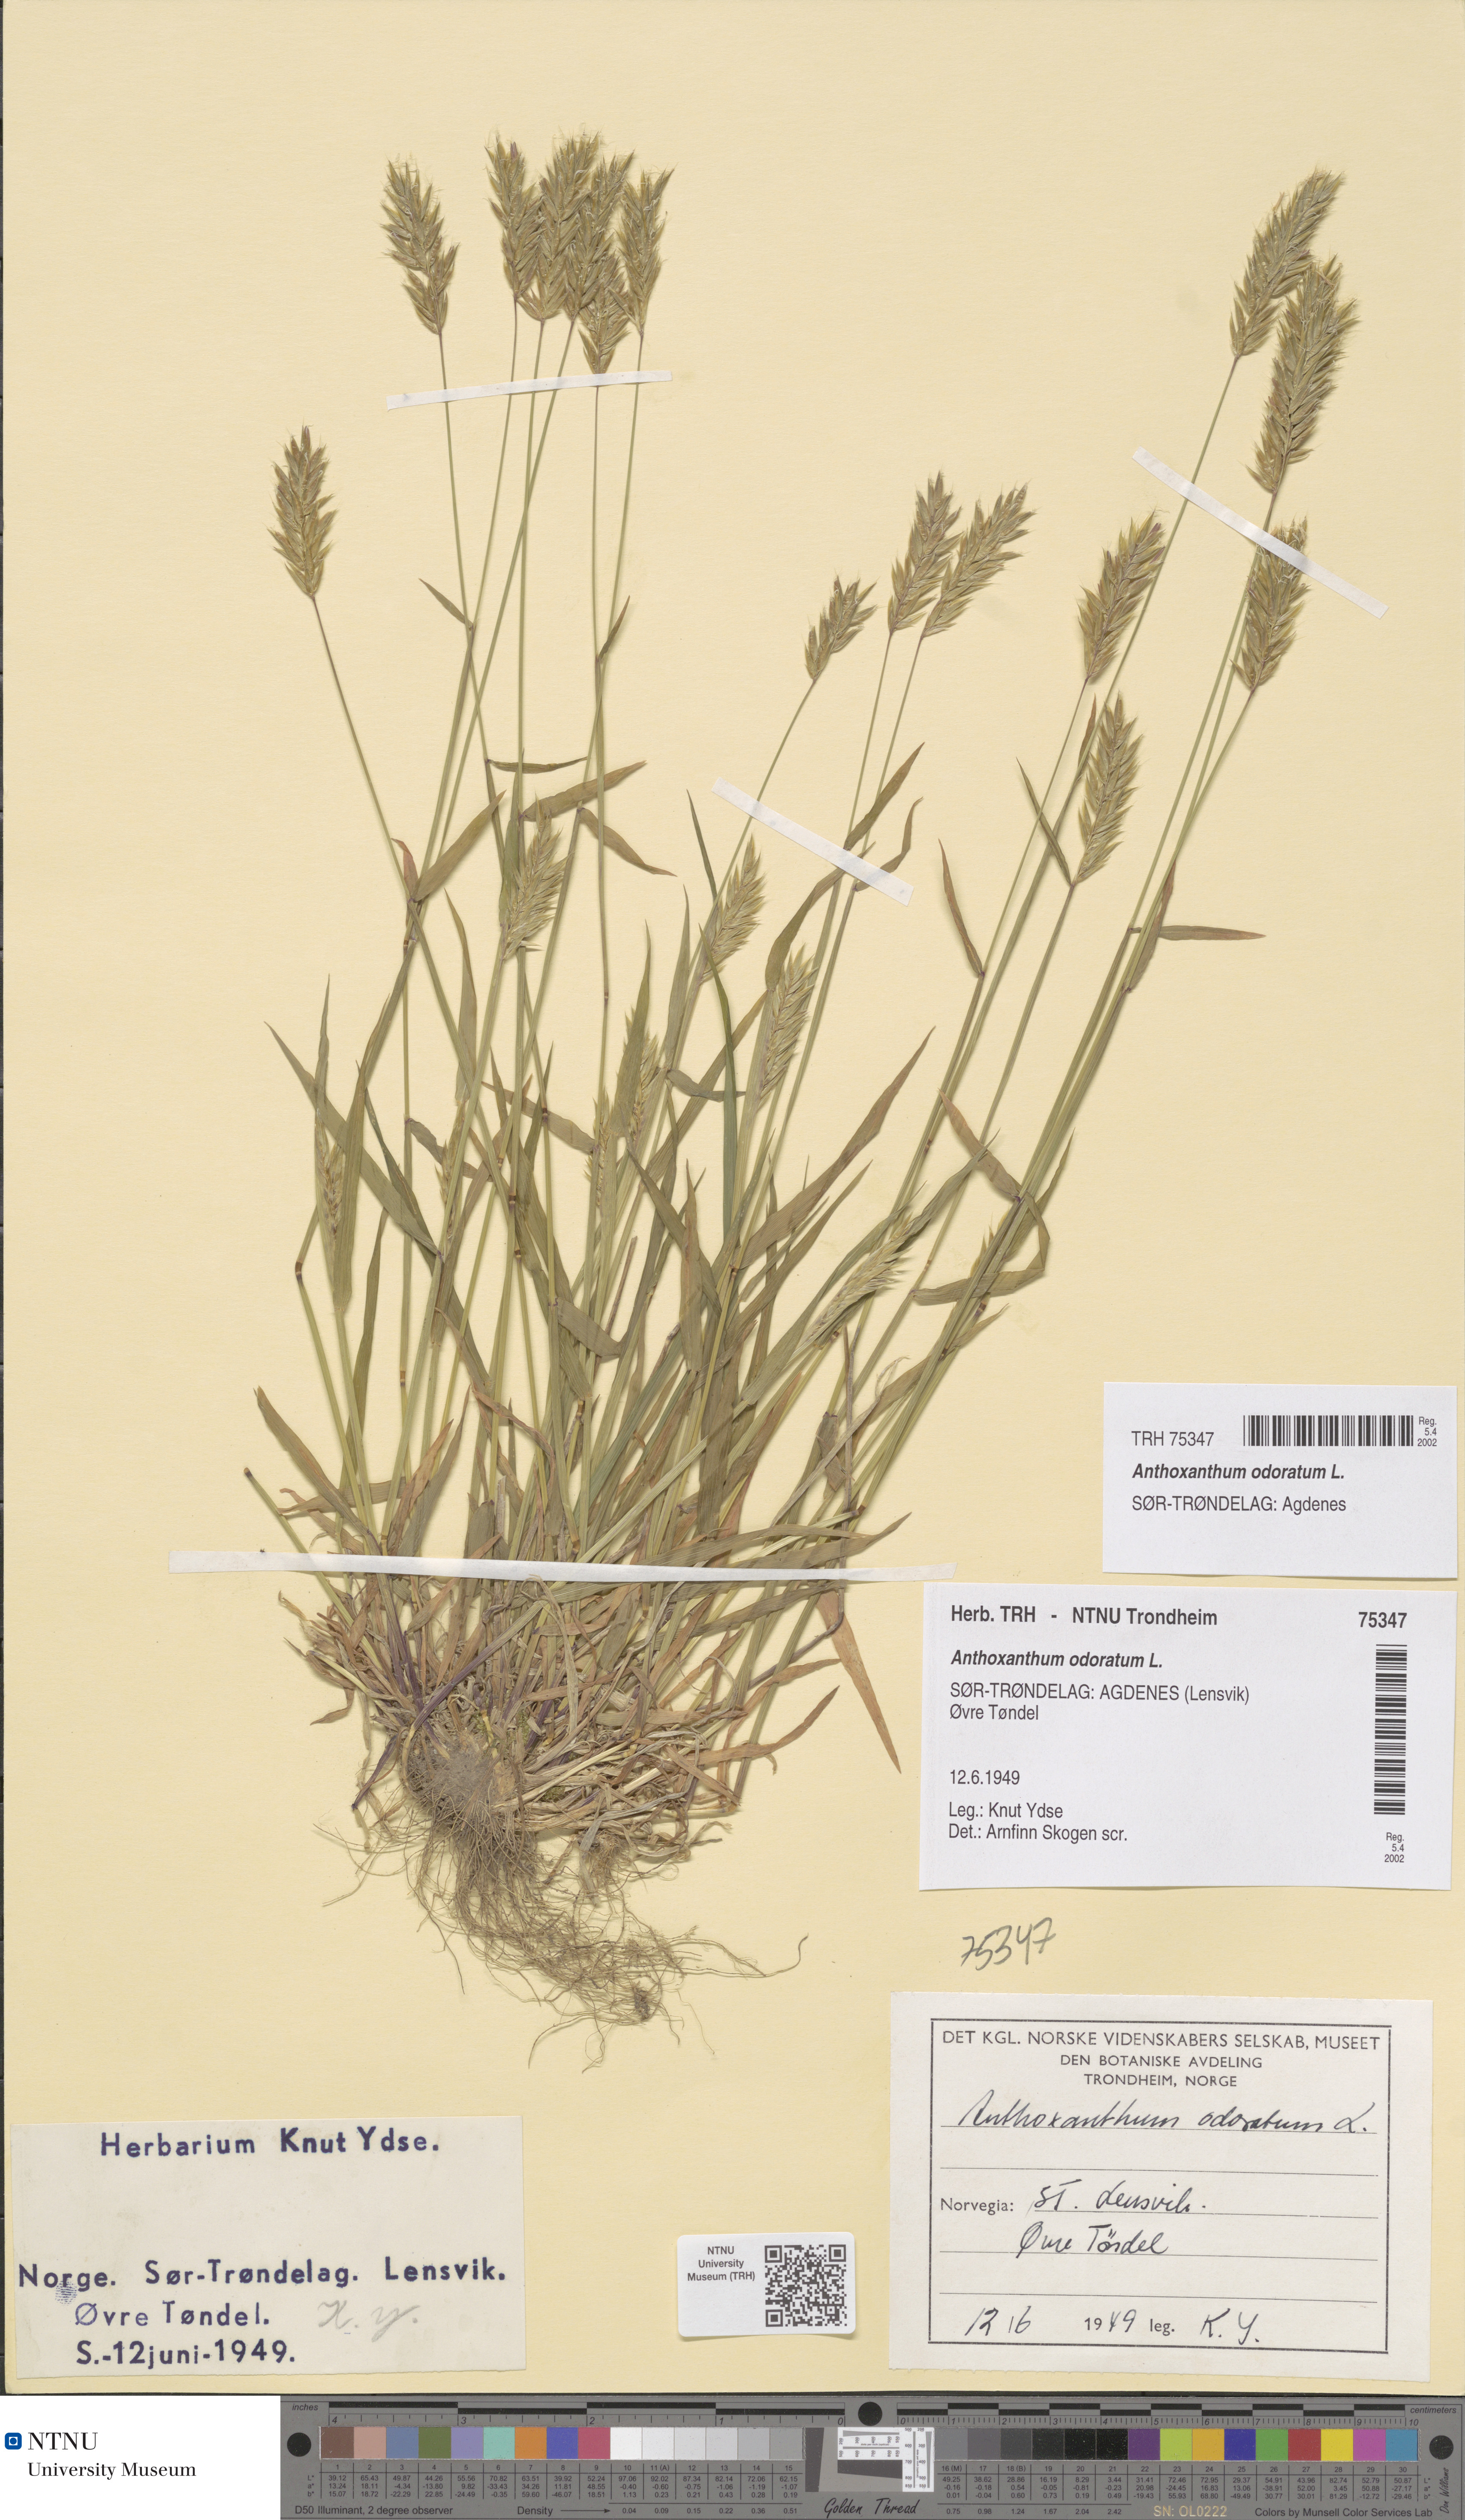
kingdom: Plantae
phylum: Tracheophyta
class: Liliopsida
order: Poales
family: Poaceae
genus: Anthoxanthum
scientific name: Anthoxanthum odoratum
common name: Sweet vernalgrass
